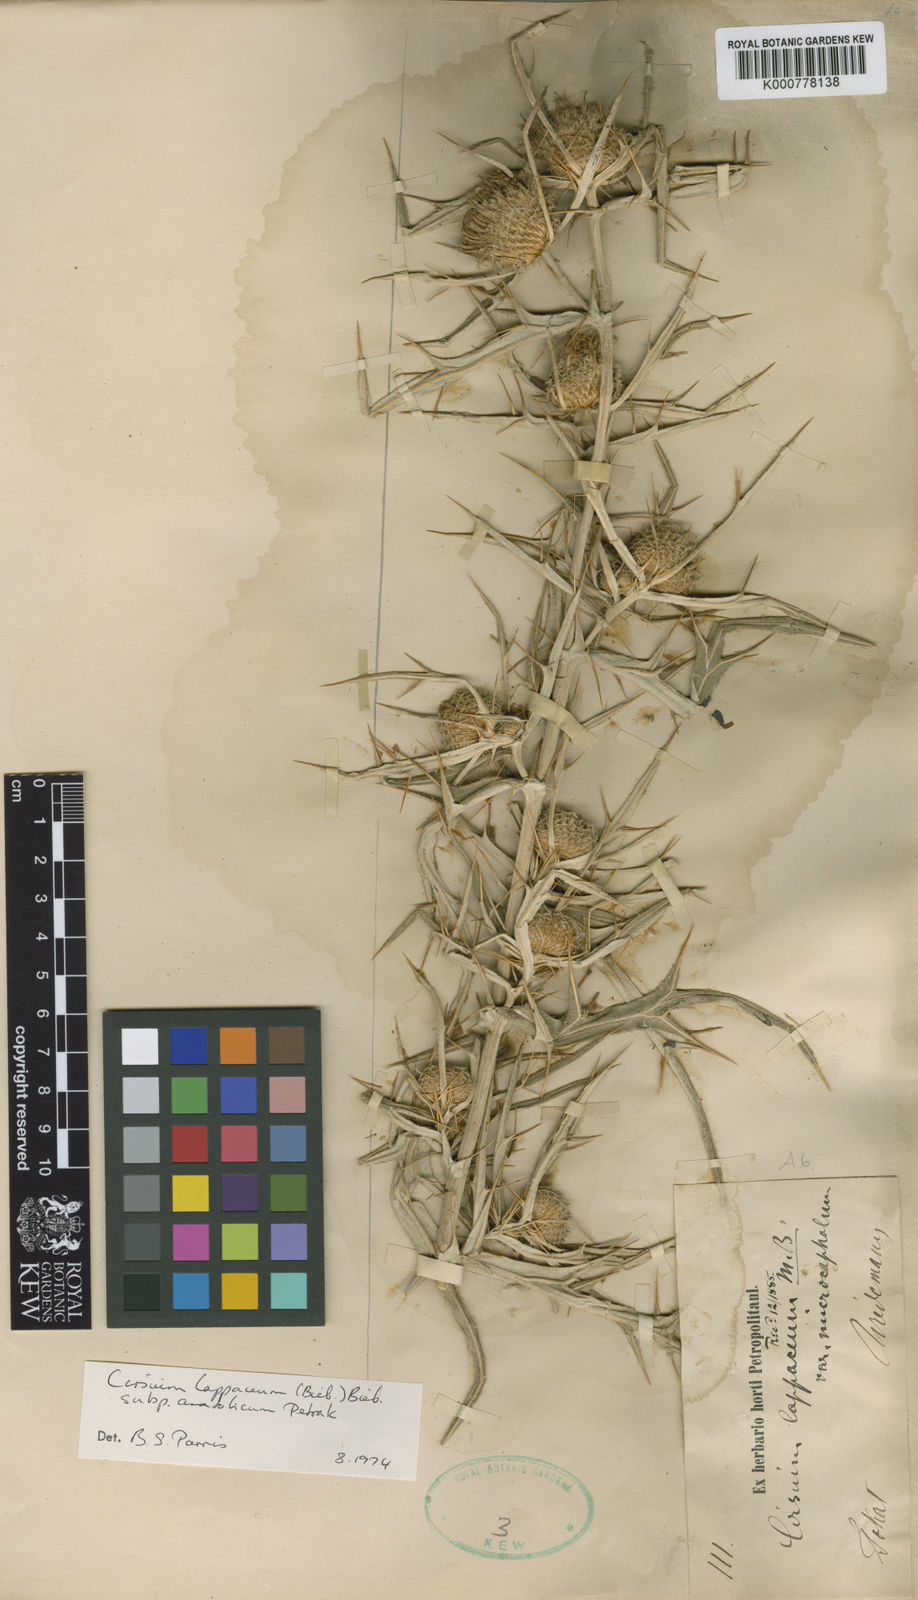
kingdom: Plantae
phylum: Tracheophyta
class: Magnoliopsida
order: Asterales
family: Asteraceae
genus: Lophiolepis
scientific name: Lophiolepis lappacea
